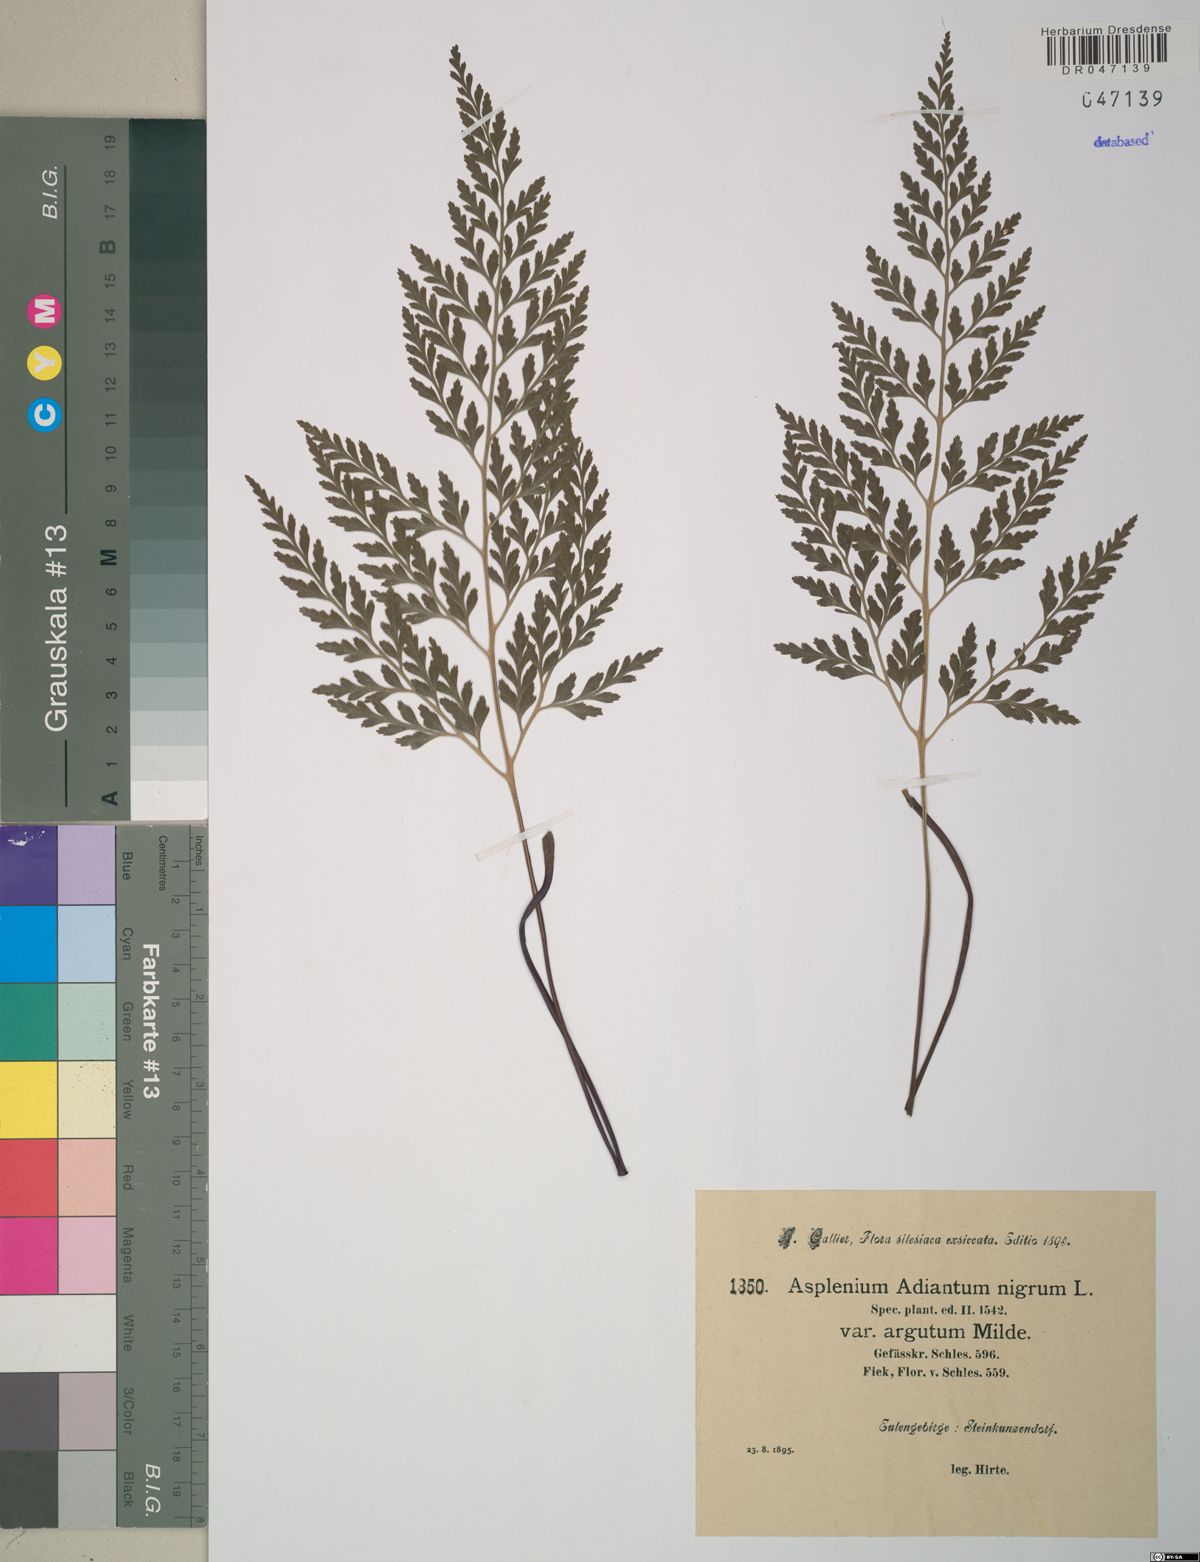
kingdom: Plantae
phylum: Tracheophyta
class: Polypodiopsida
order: Polypodiales
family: Aspleniaceae
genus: Asplenium
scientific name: Asplenium adiantum-nigrum
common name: Black spleenwort
